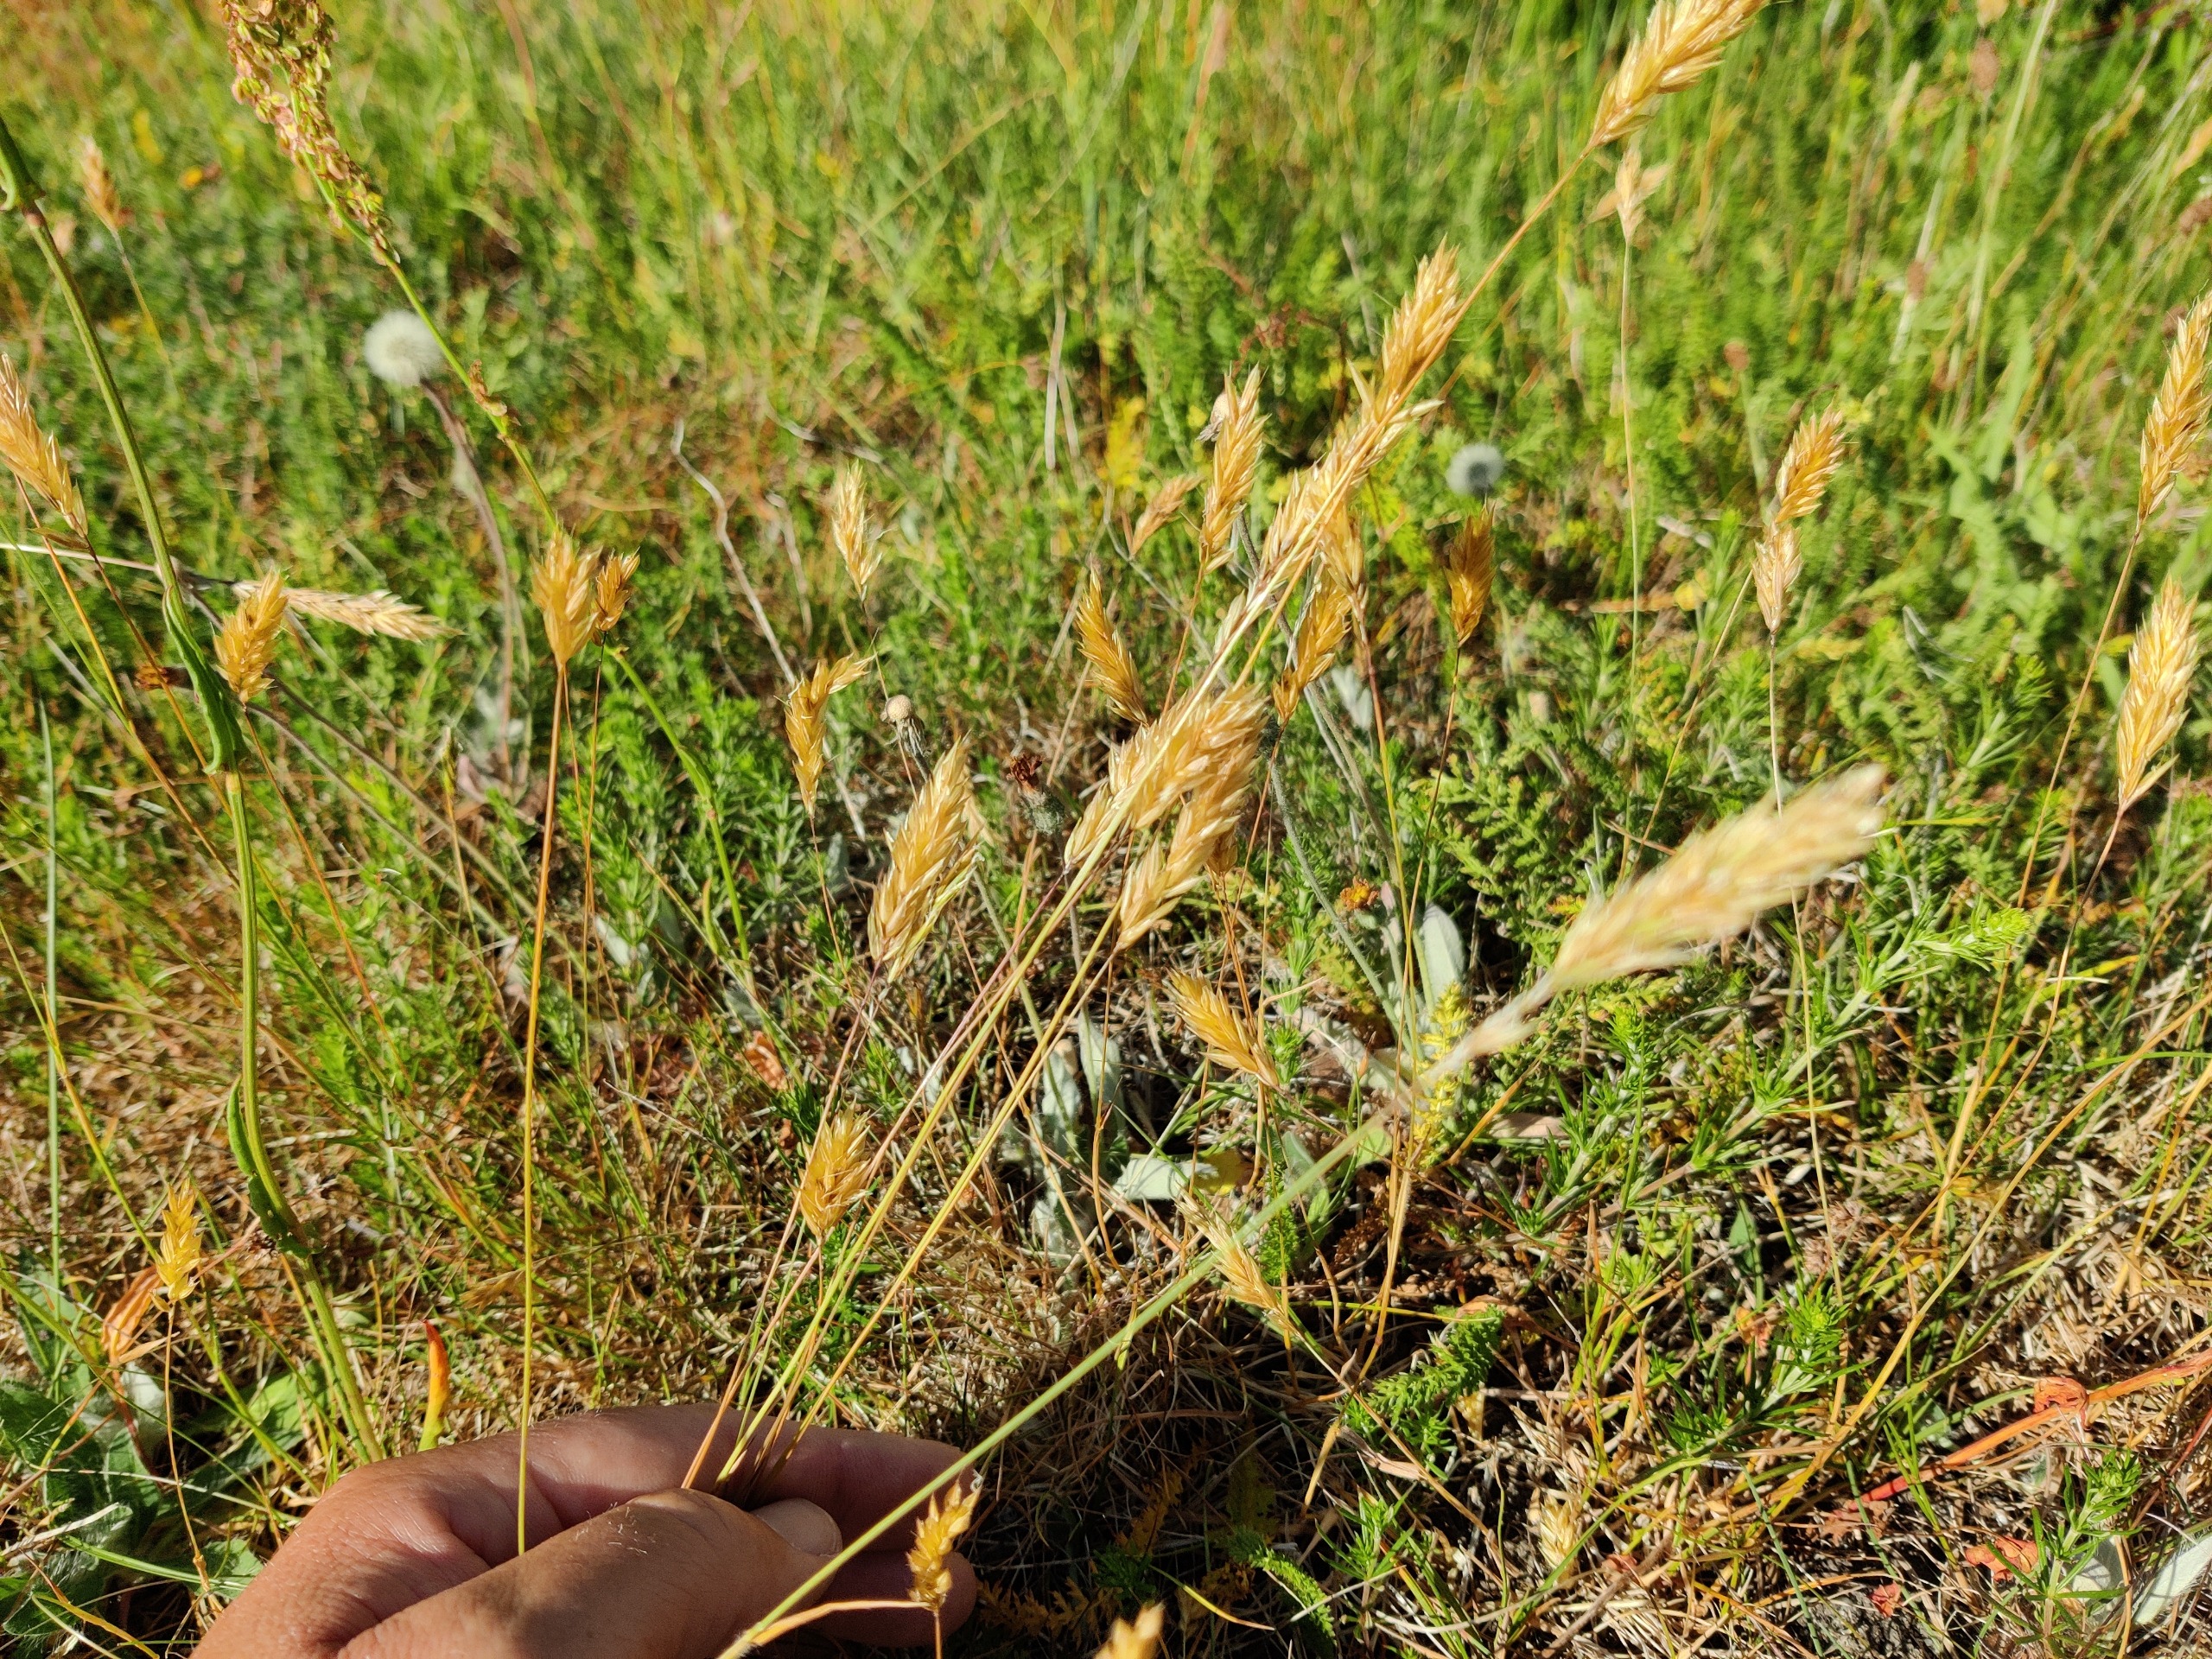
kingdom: Plantae
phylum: Tracheophyta
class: Liliopsida
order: Poales
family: Poaceae
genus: Anthoxanthum
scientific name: Anthoxanthum odoratum
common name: Vellugtende gulaks
